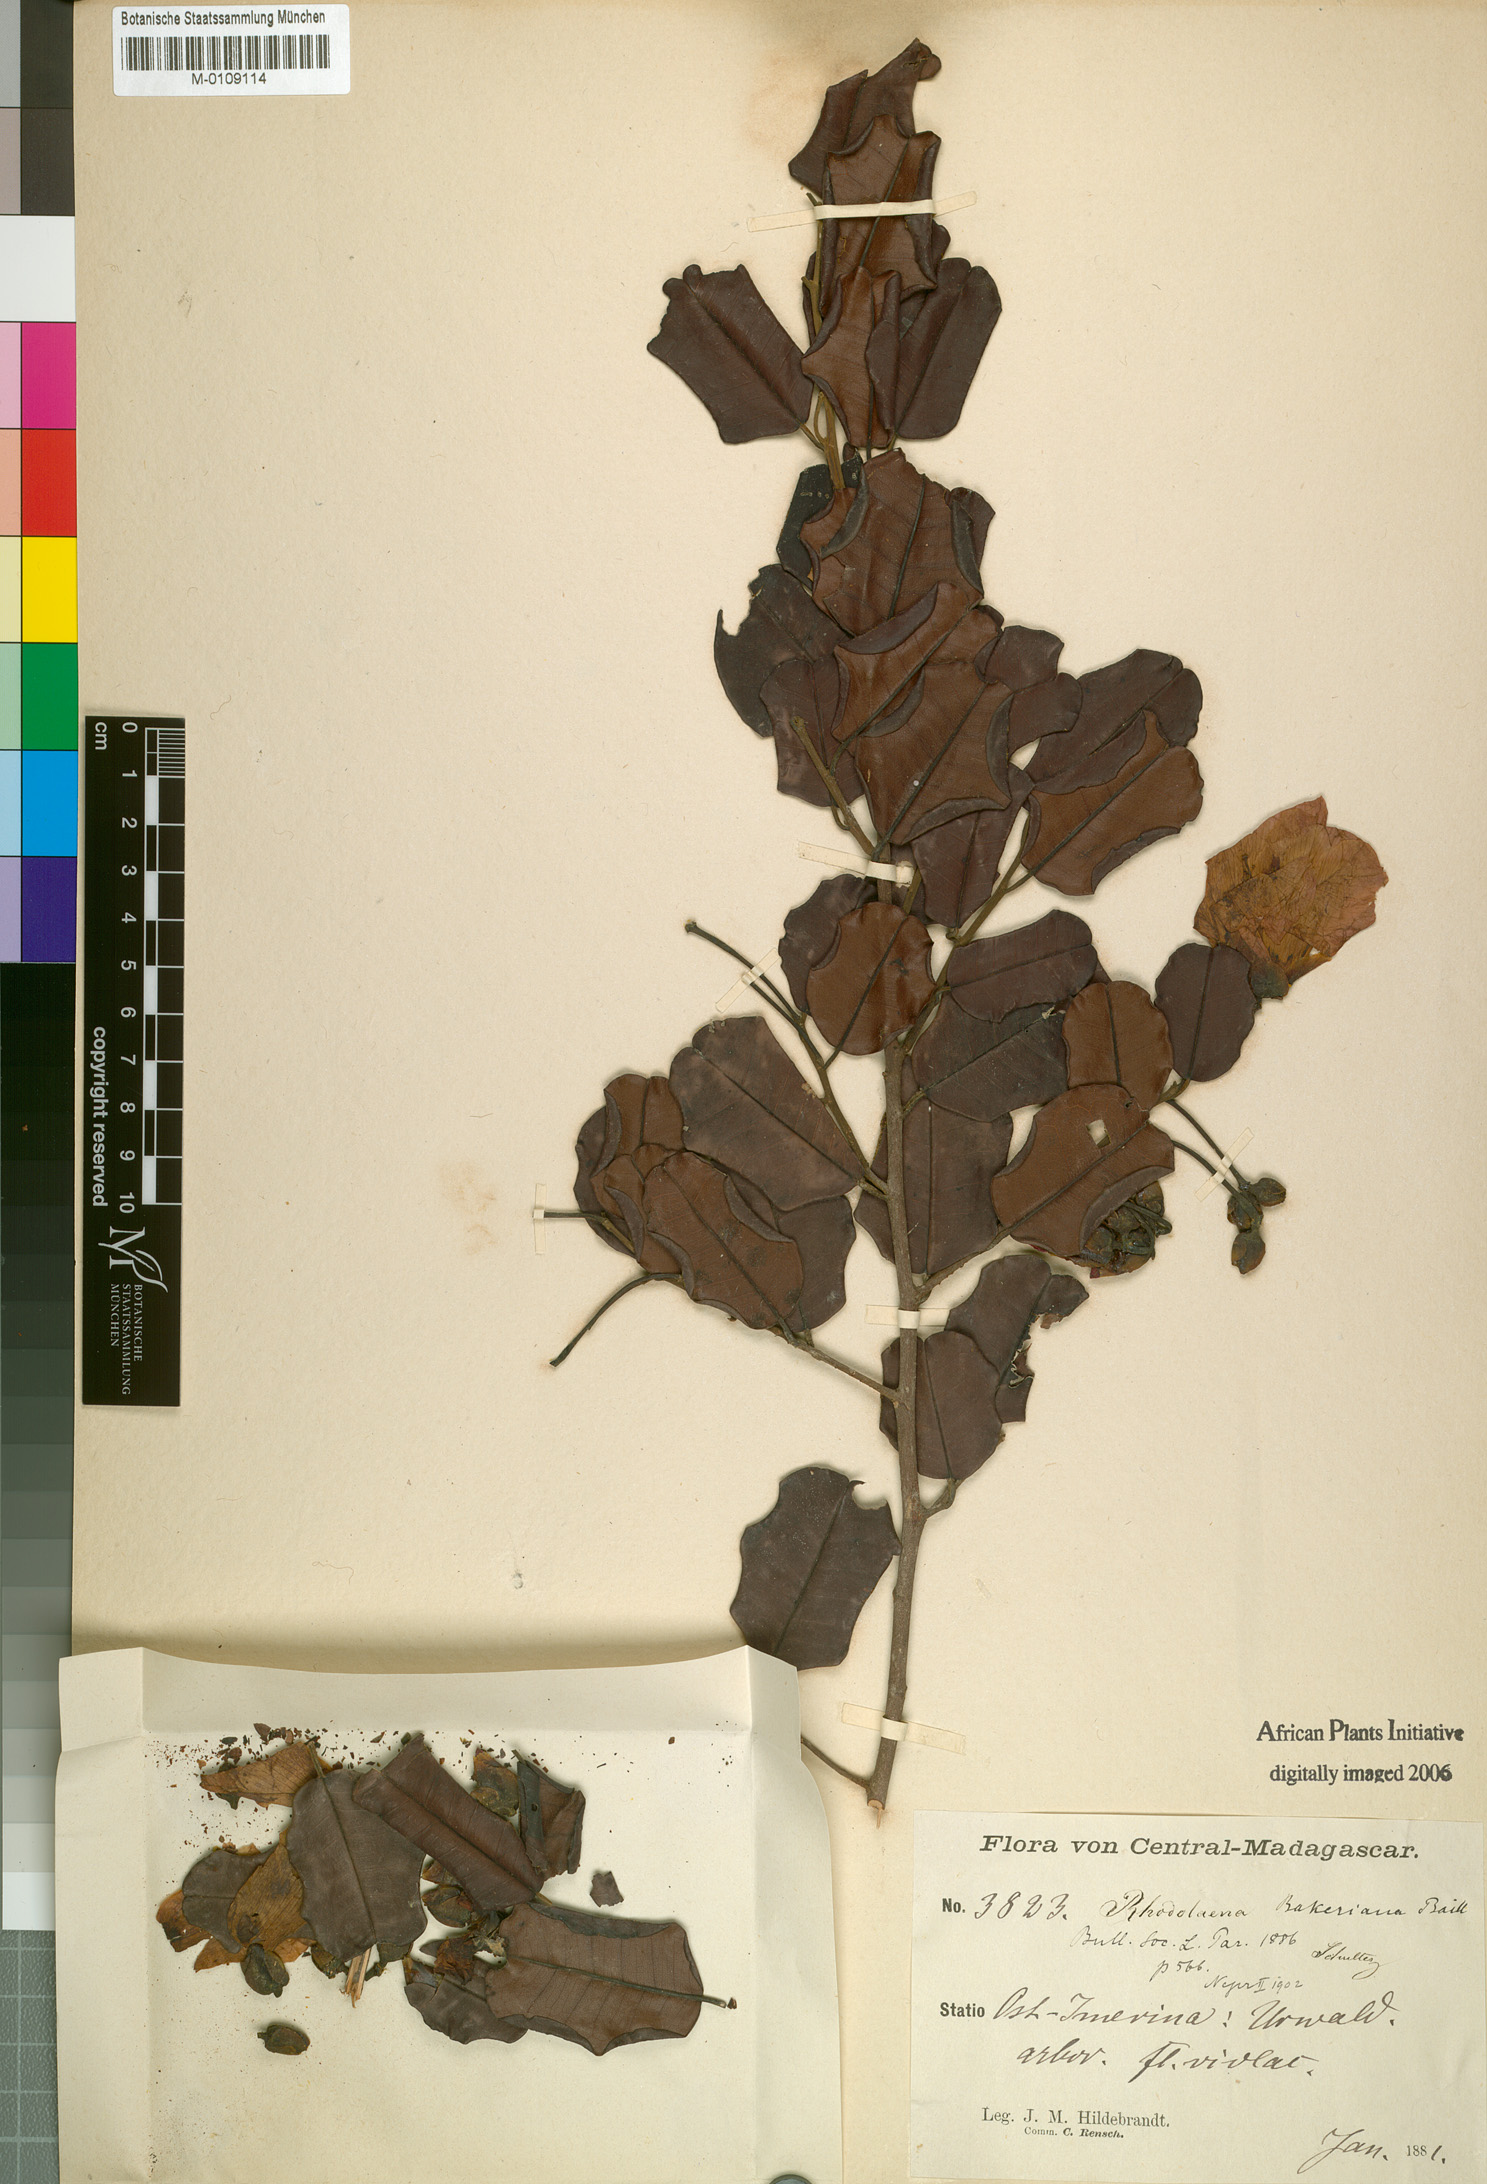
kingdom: Plantae
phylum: Tracheophyta
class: Magnoliopsida
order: Malvales
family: Sarcolaenaceae
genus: Rhodolaena
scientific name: Rhodolaena bakeriana
